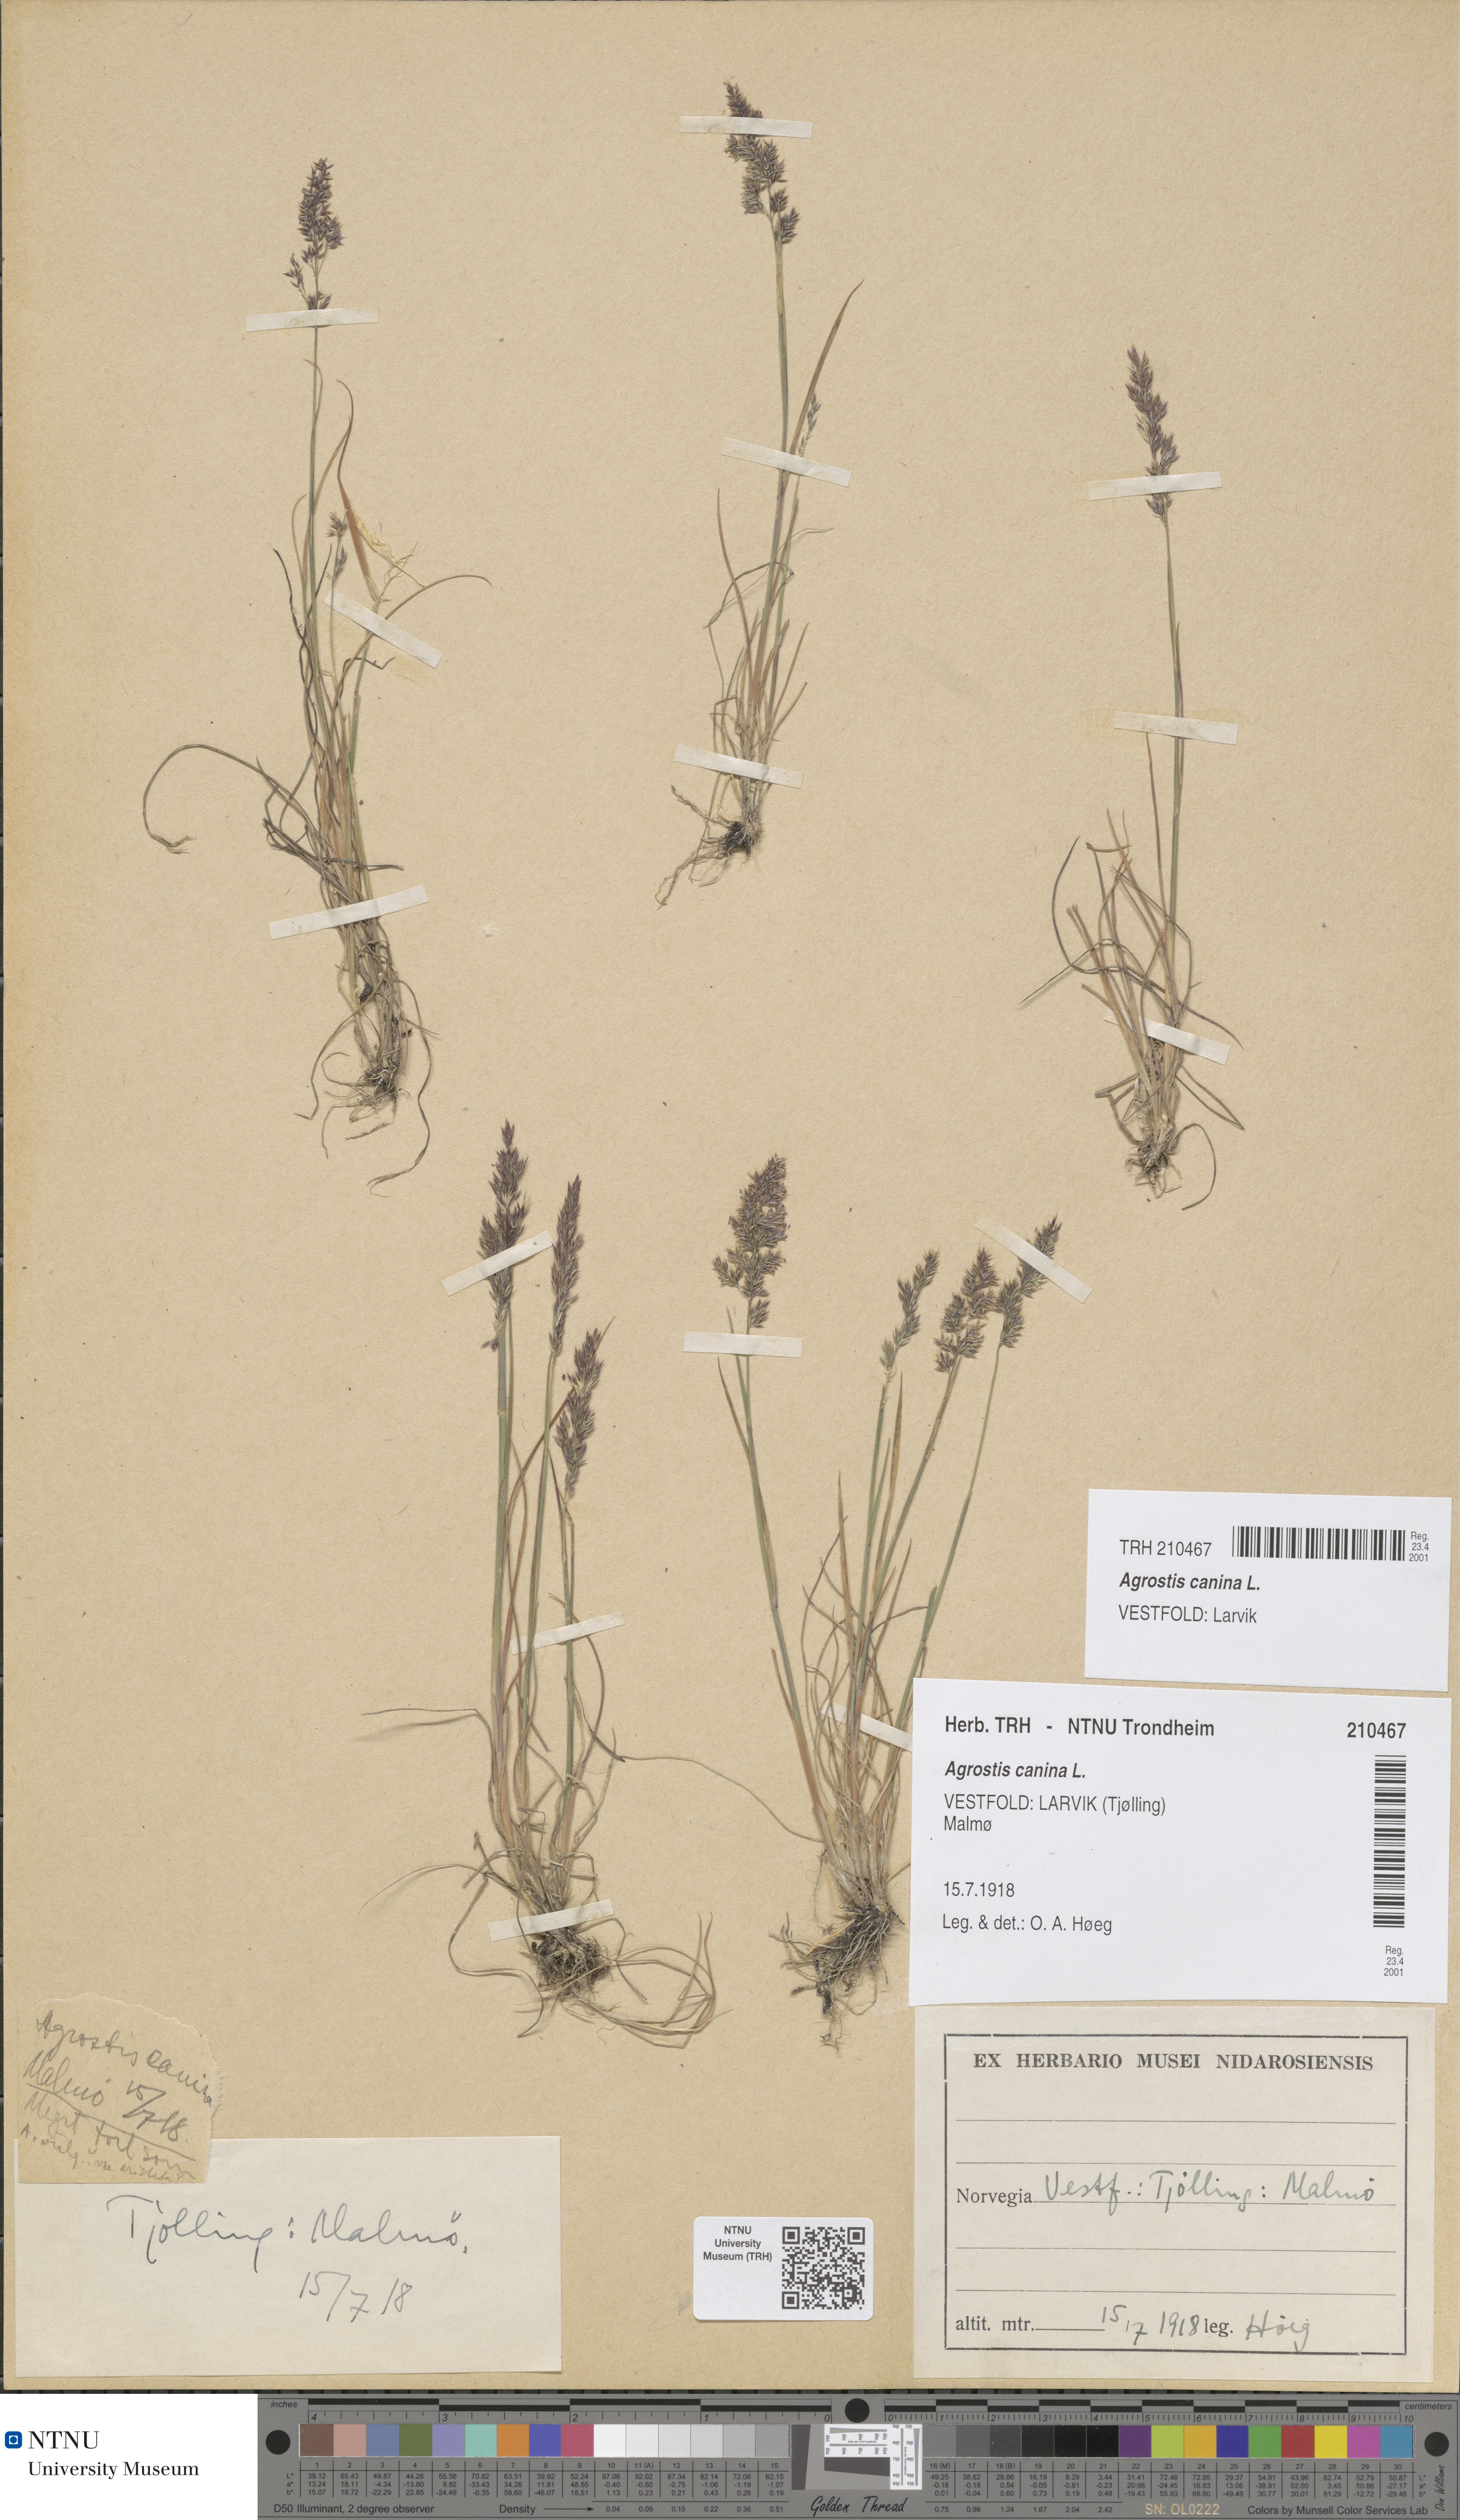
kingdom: Plantae
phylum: Tracheophyta
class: Liliopsida
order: Poales
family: Poaceae
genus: Agrostis
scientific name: Agrostis canina
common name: Velvet bent
